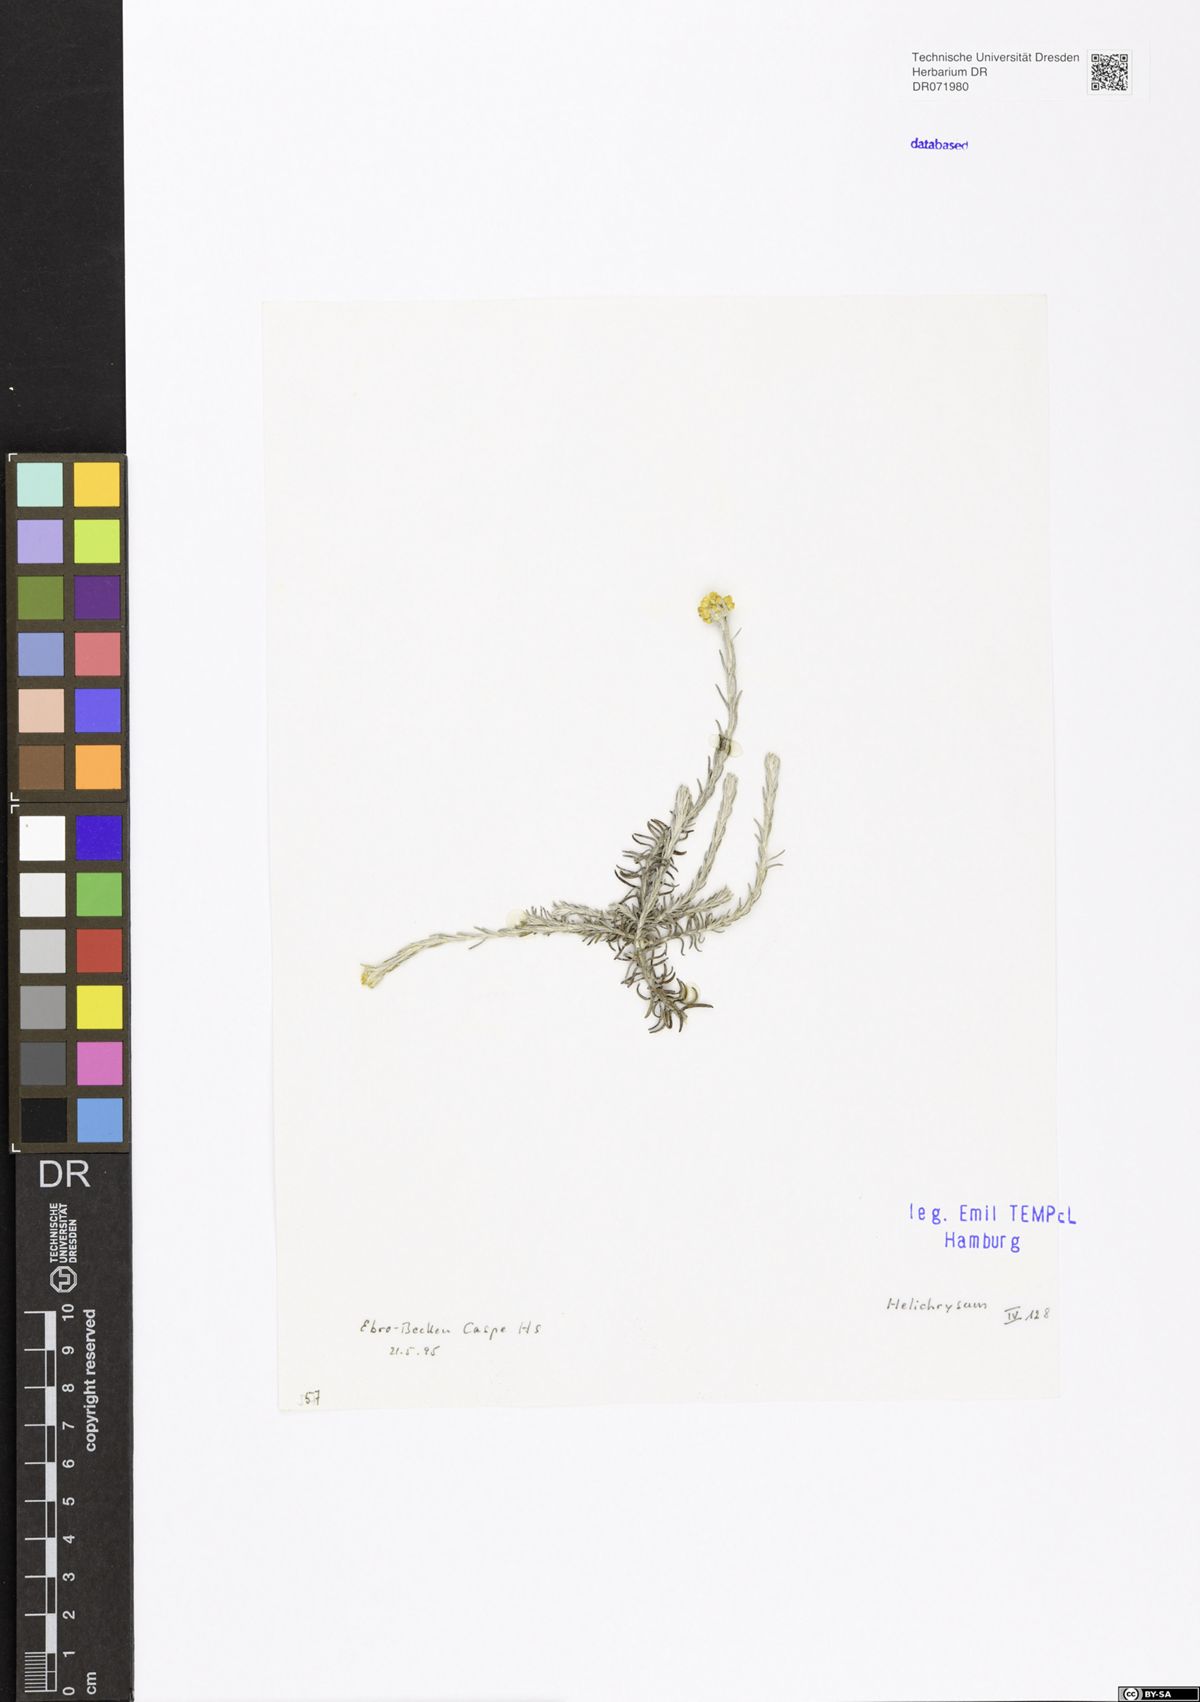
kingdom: Plantae
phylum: Tracheophyta
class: Magnoliopsida
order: Asterales
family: Asteraceae
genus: Helichrysum
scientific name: Helichrysum
